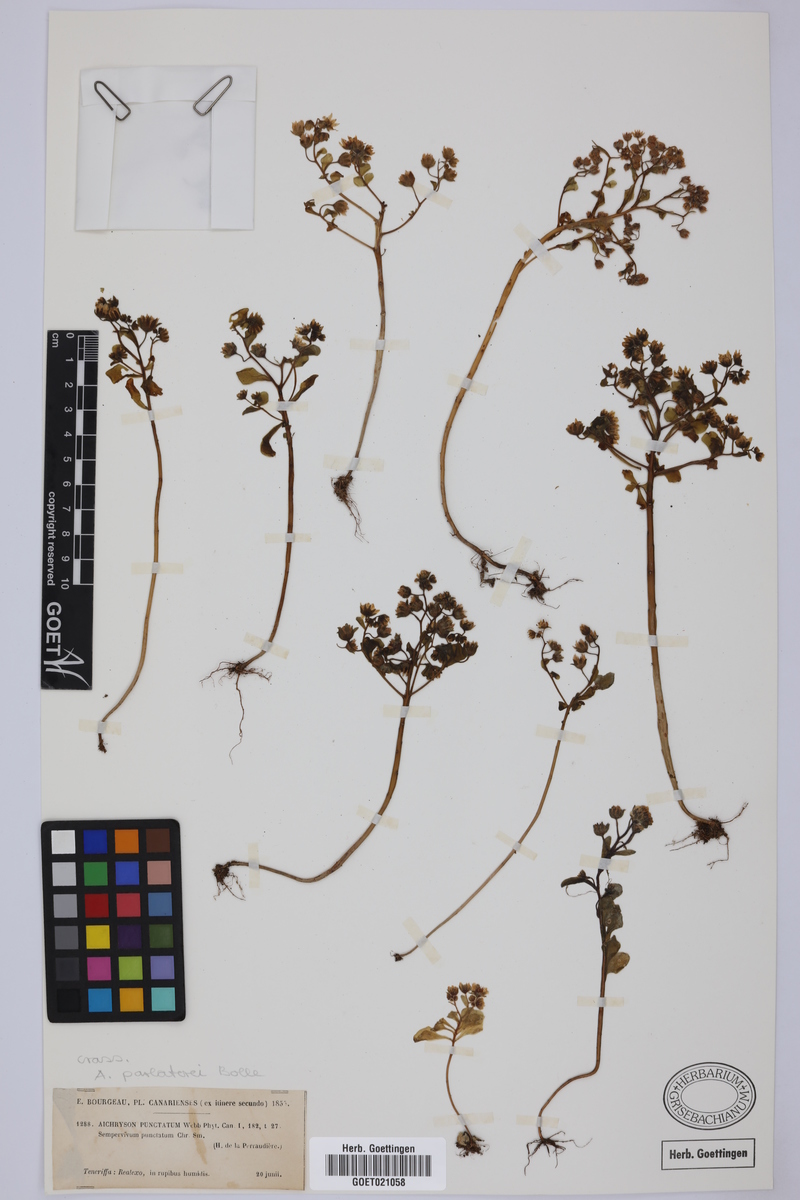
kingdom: Plantae
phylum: Tracheophyta
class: Magnoliopsida
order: Saxifragales
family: Crassulaceae
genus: Aichryson
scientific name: Aichryson parlatorei
